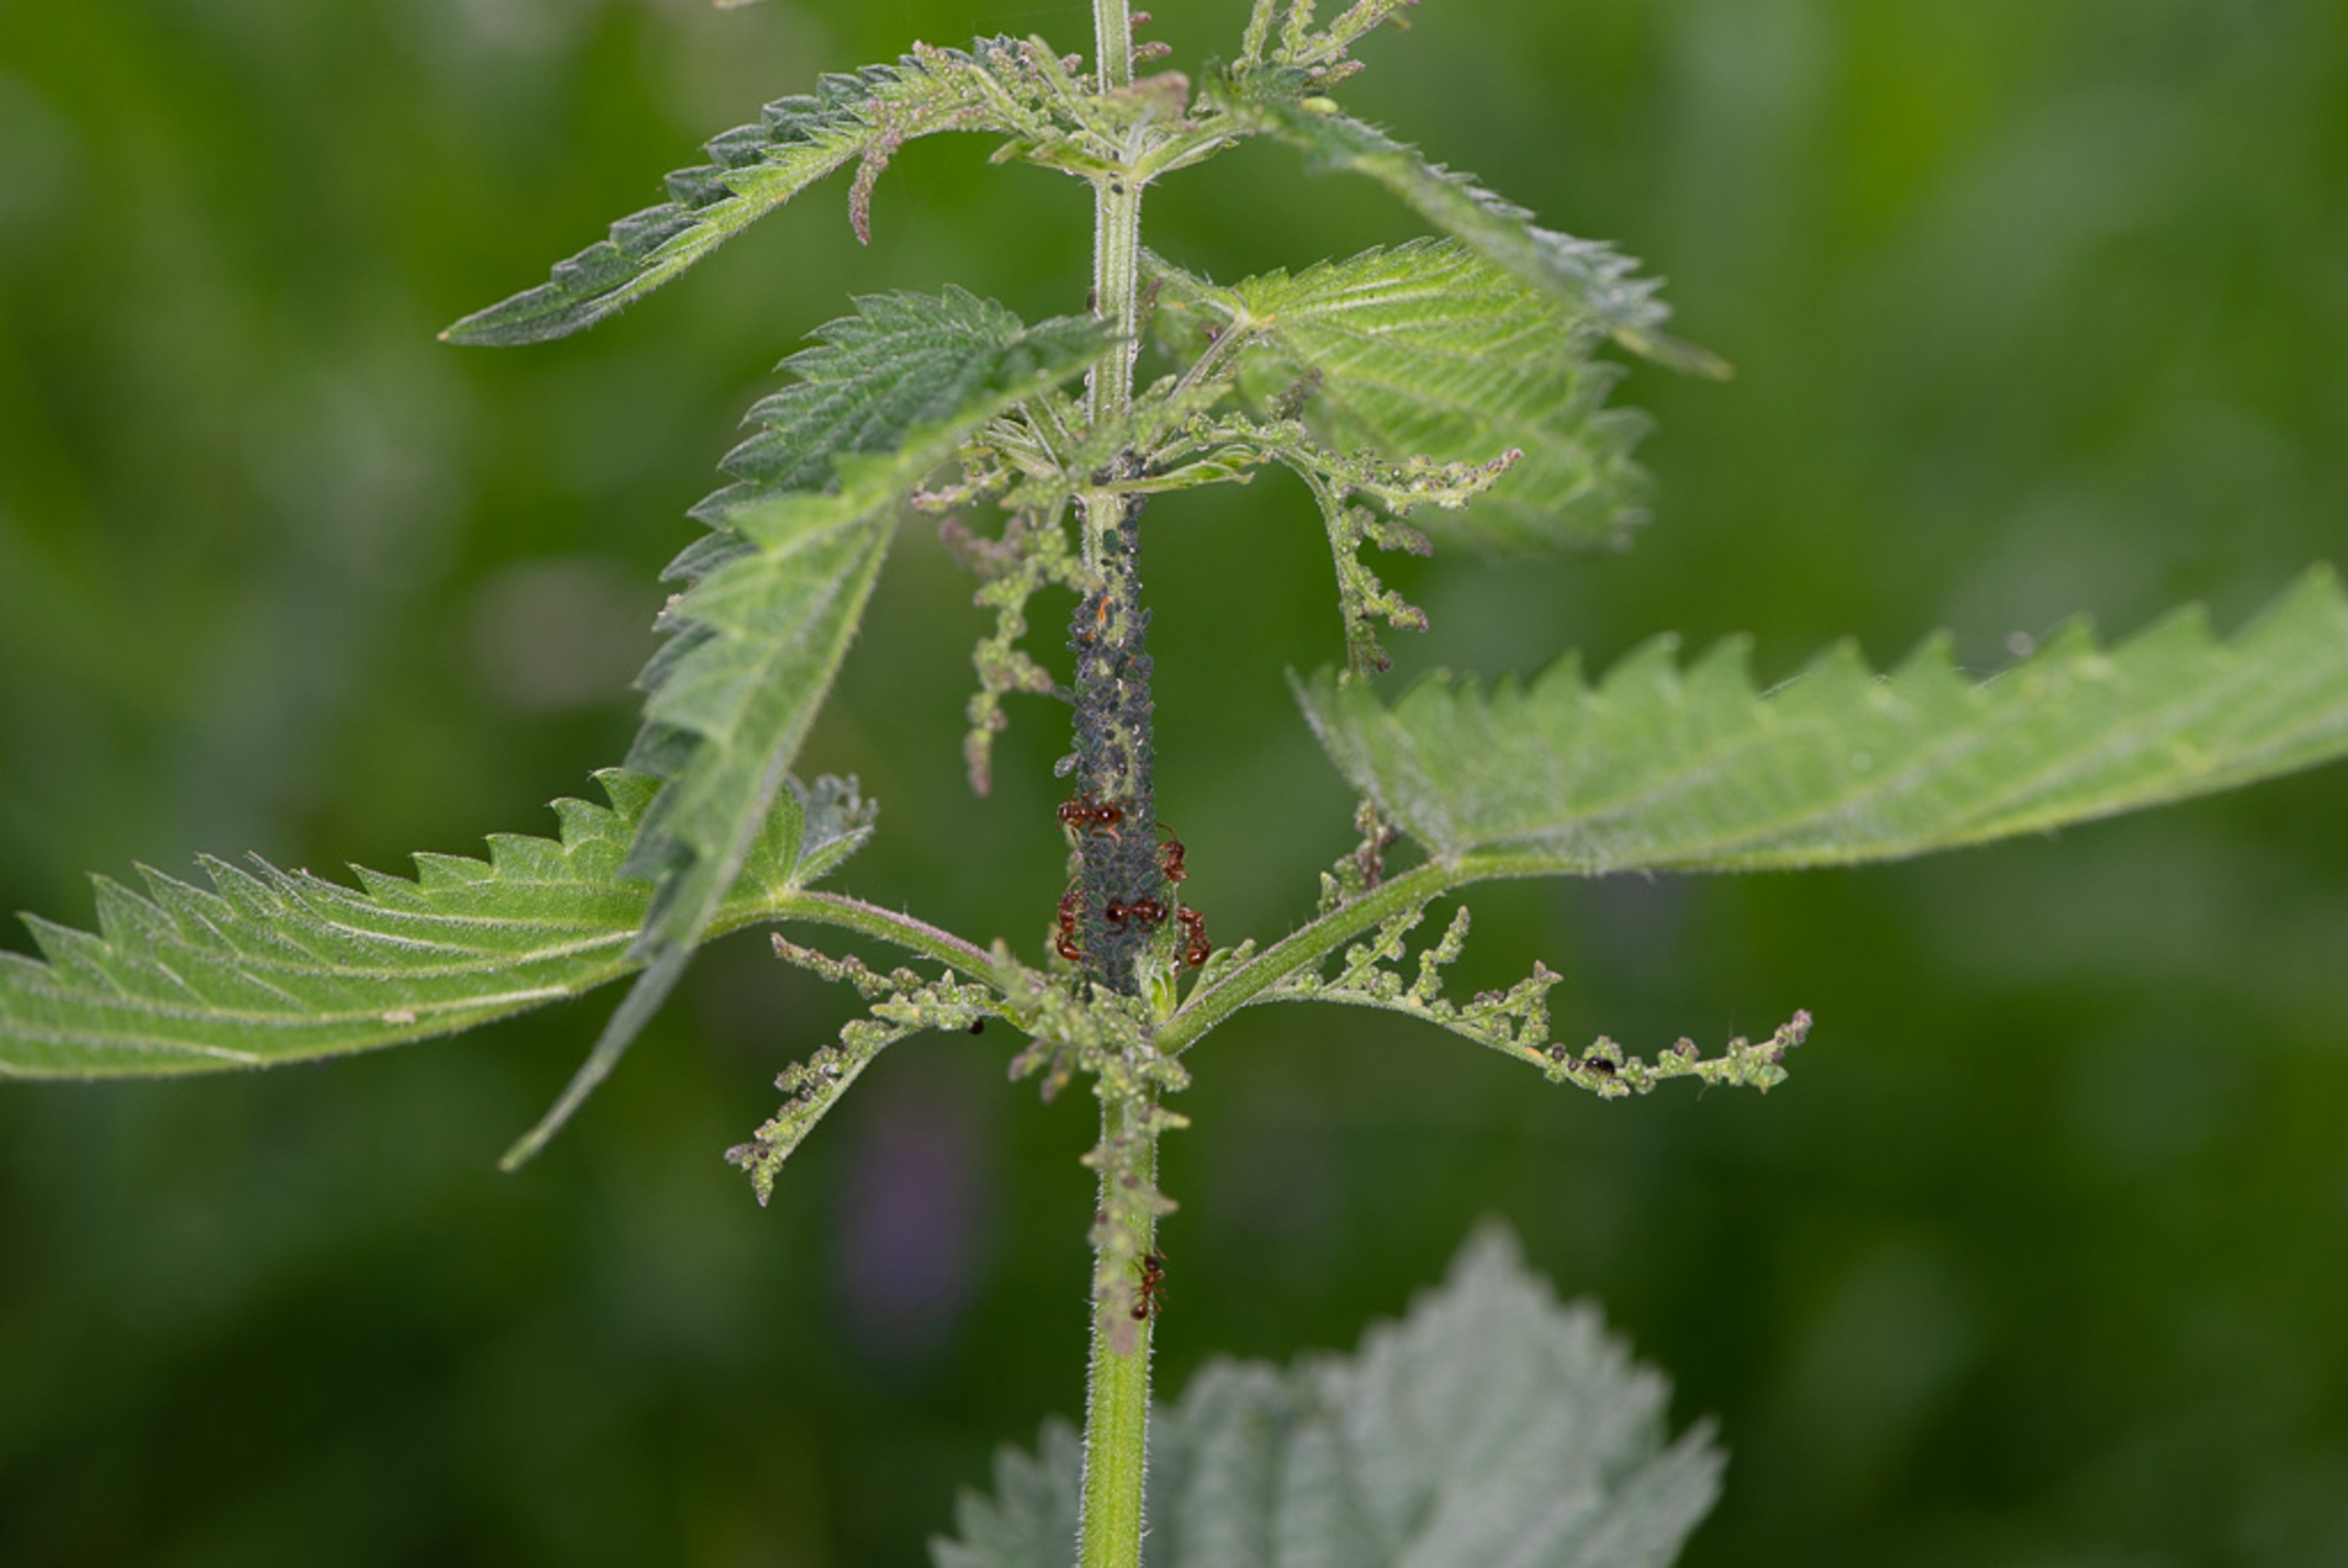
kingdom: Animalia
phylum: Arthropoda
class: Insecta
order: Hemiptera
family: Aphididae
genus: Aphis
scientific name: Aphis urticata
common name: Lille nældebladlus
